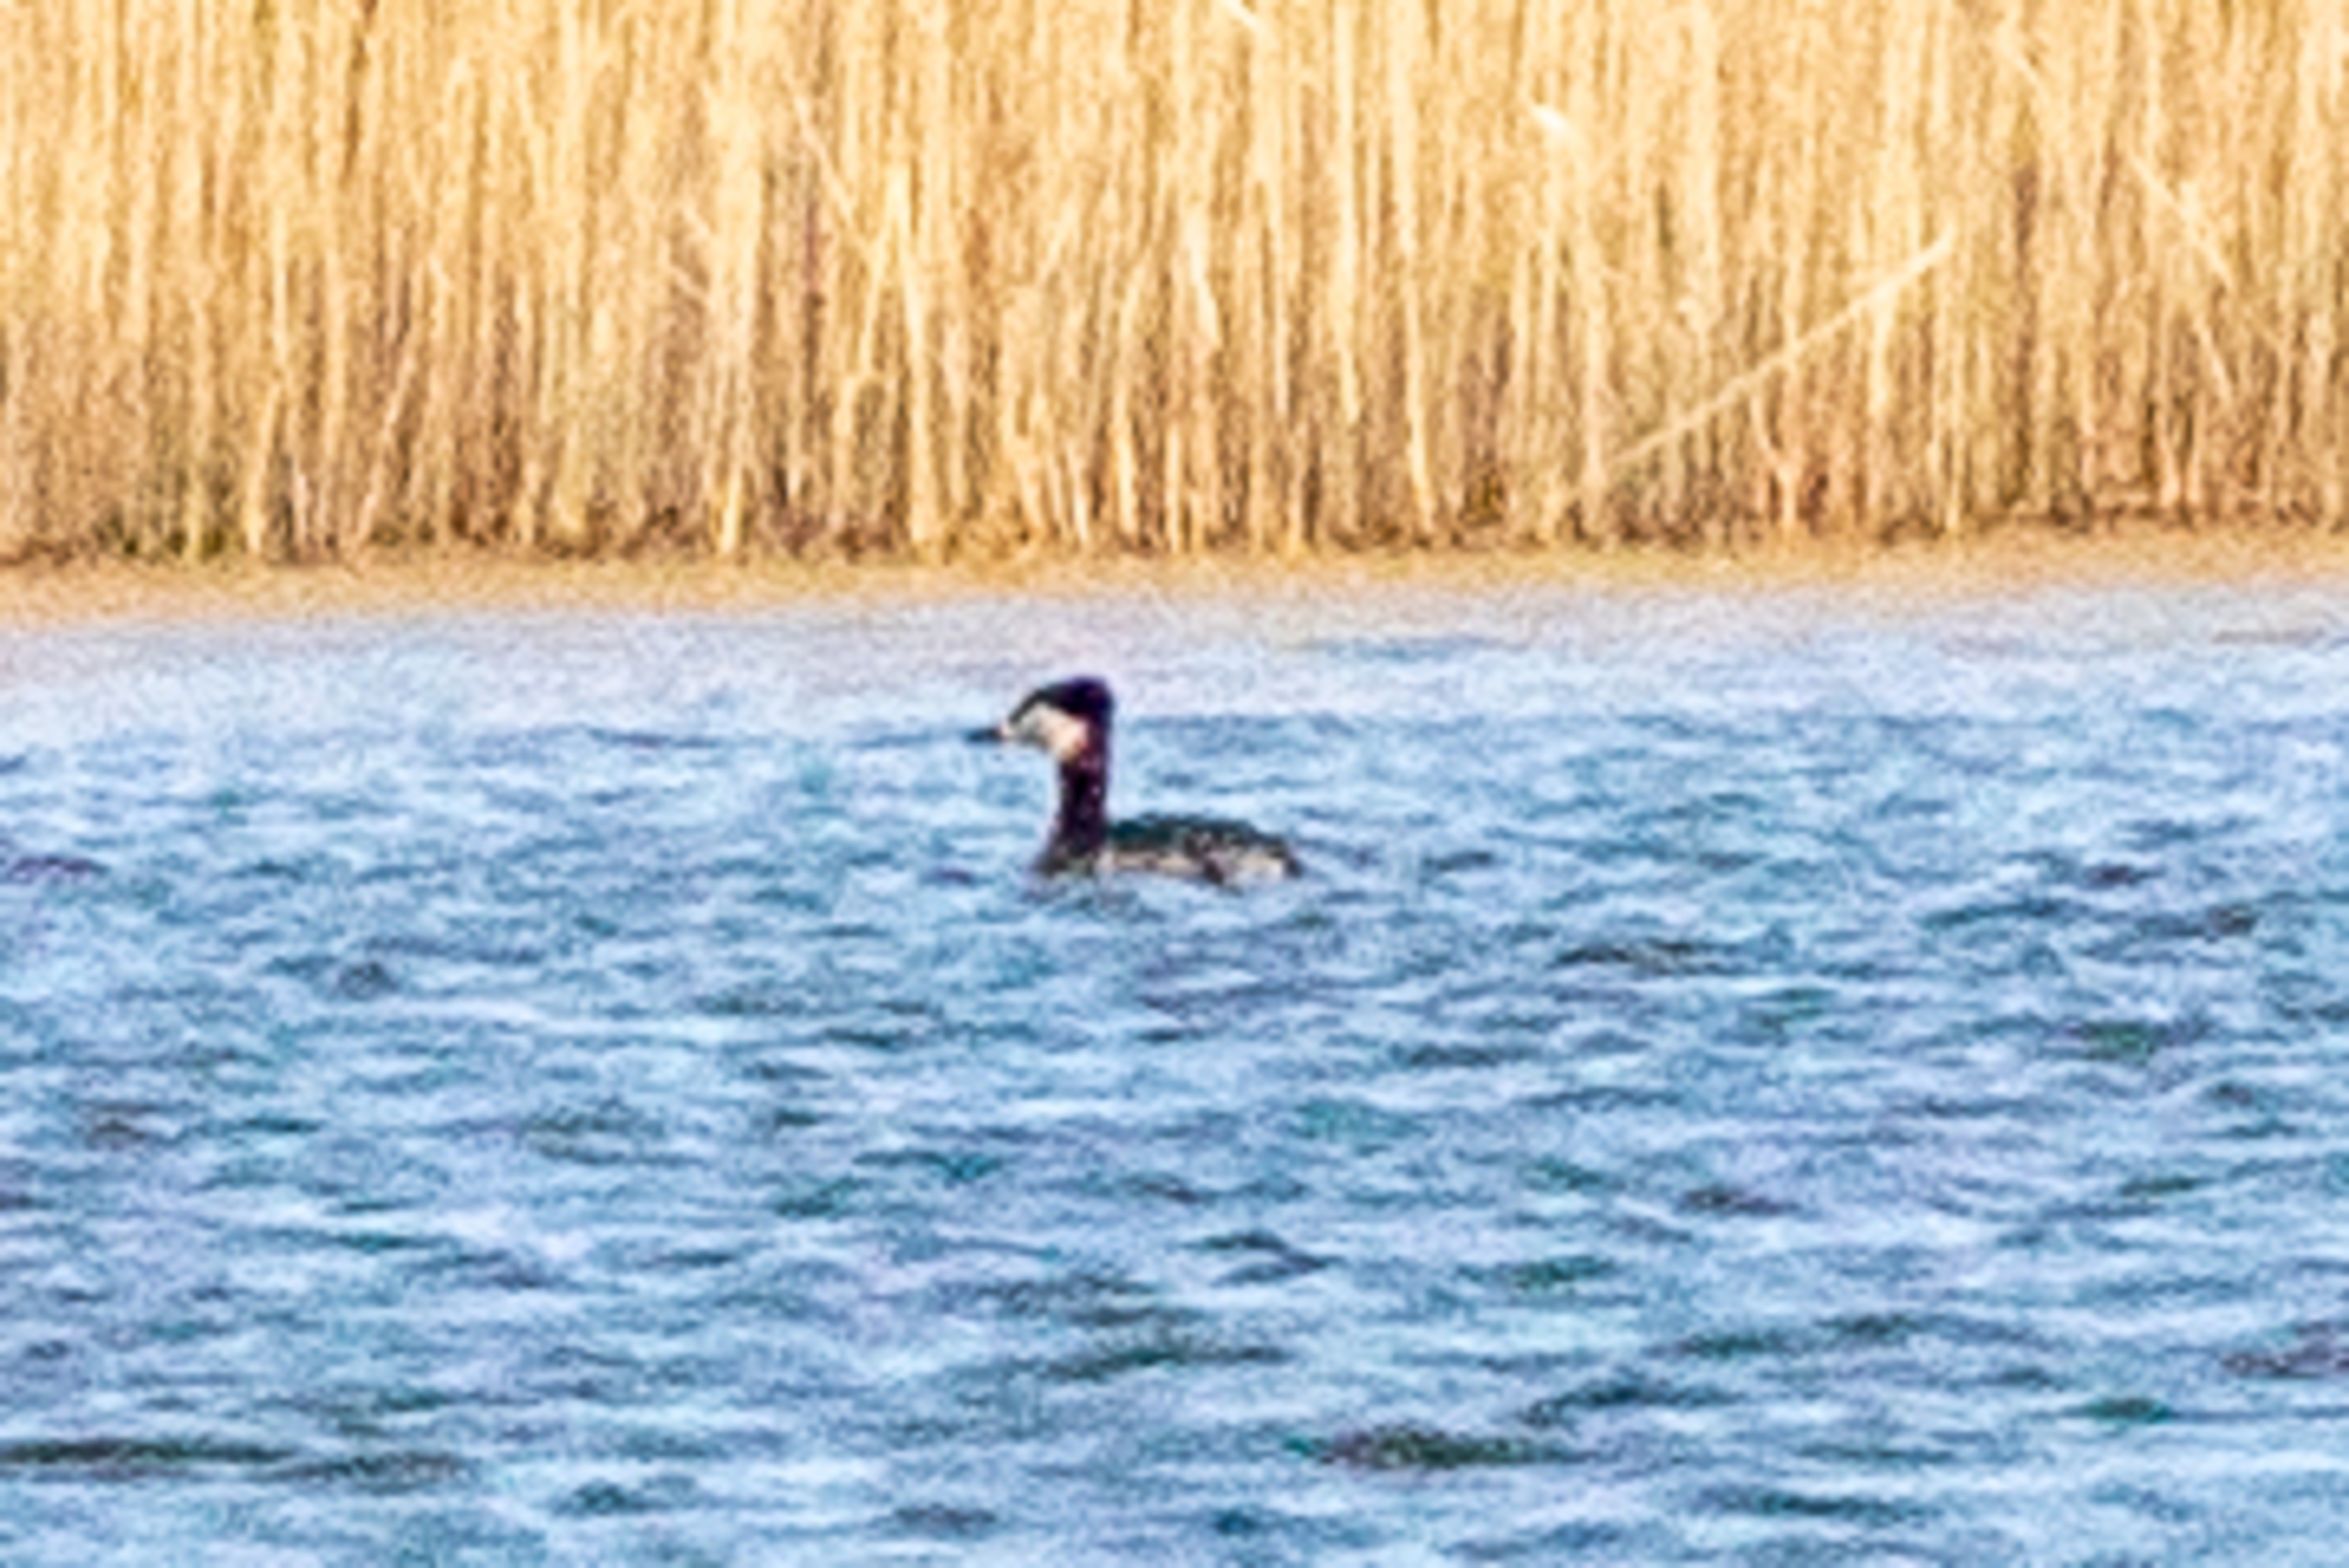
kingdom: Animalia
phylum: Chordata
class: Aves
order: Podicipediformes
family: Podicipedidae
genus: Podiceps
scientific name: Podiceps grisegena
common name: Gråstrubet lappedykker
